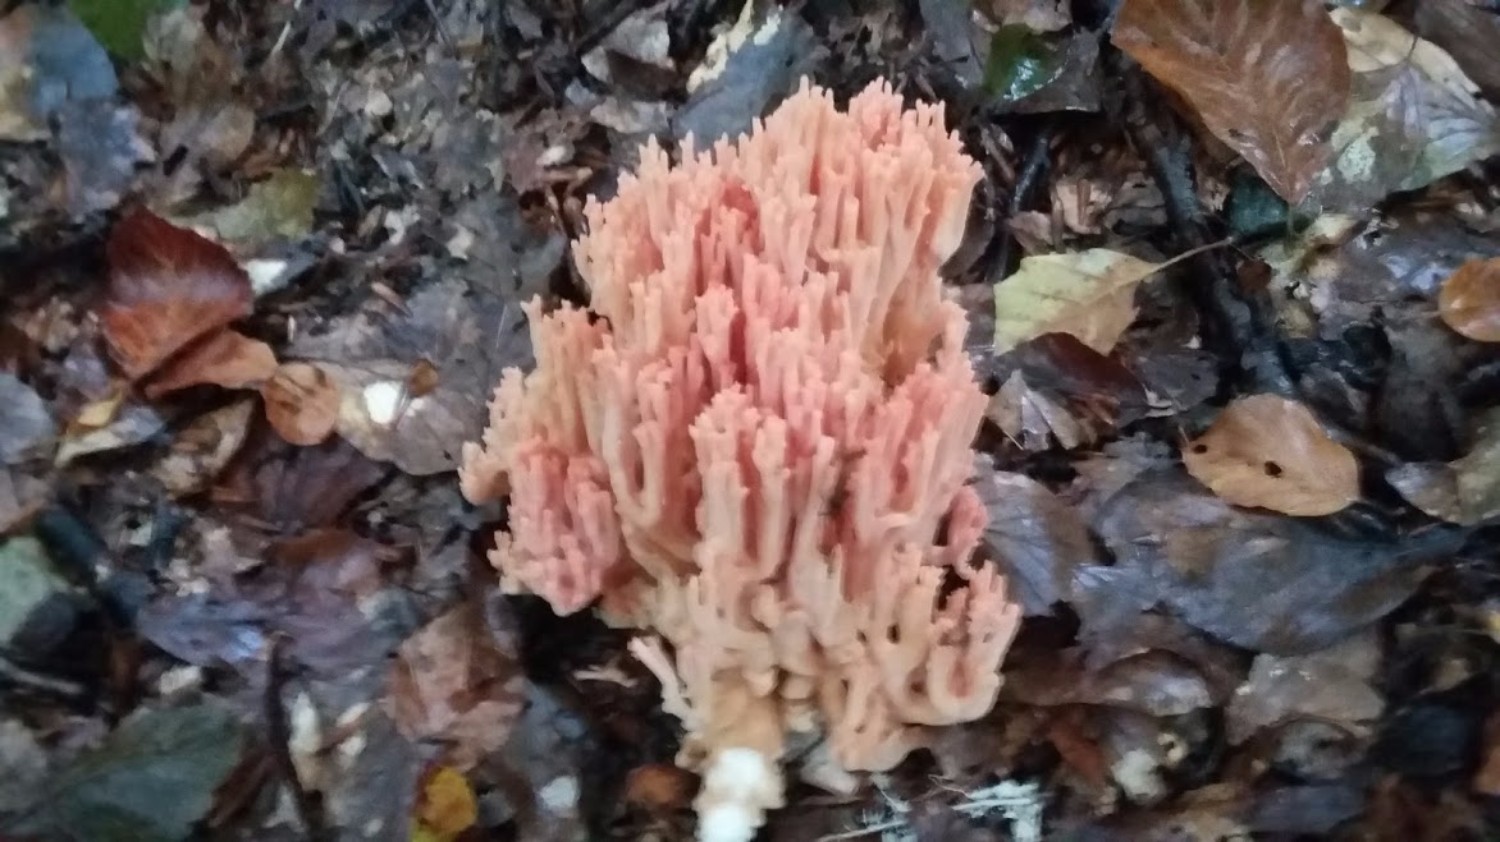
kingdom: Fungi
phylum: Basidiomycota
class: Agaricomycetes
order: Gomphales
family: Gomphaceae
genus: Ramaria
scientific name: Ramaria fagetorum
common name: abrikos-koralsvamp
